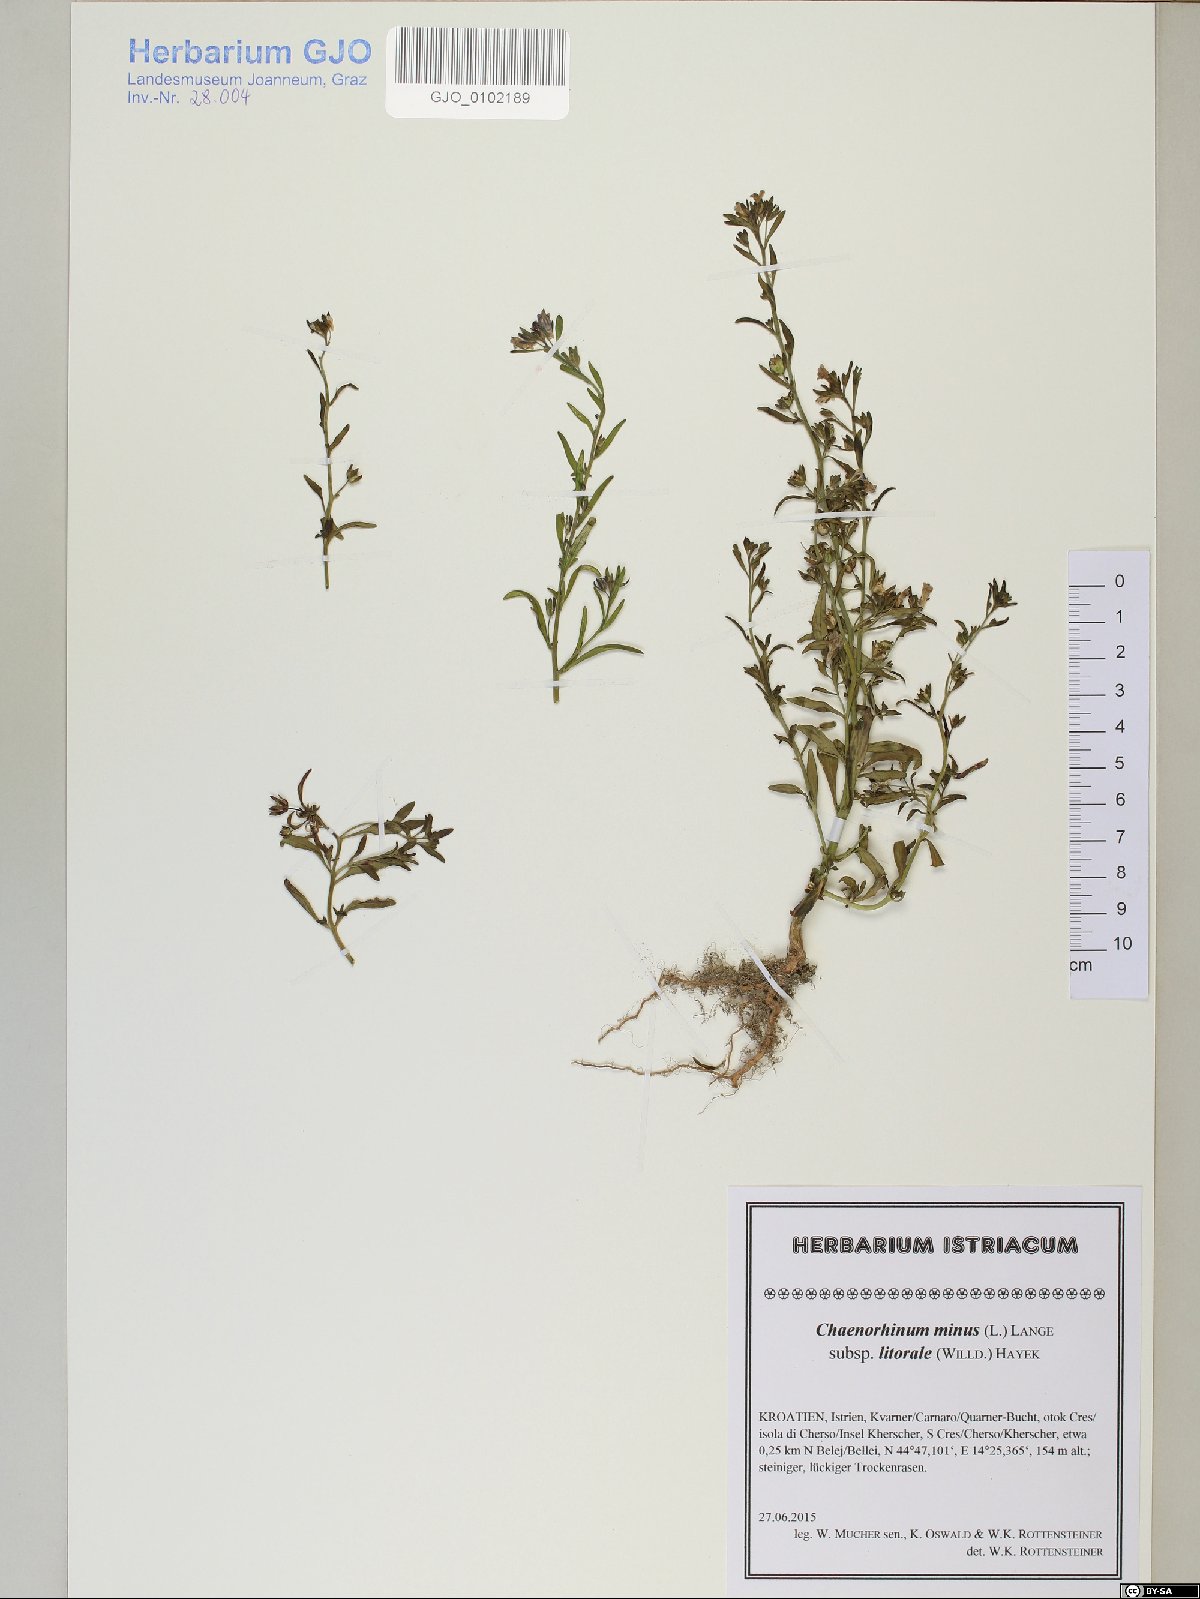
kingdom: Plantae
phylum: Tracheophyta
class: Magnoliopsida
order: Lamiales
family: Plantaginaceae
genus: Chaenorhinum
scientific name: Chaenorhinum litorale
